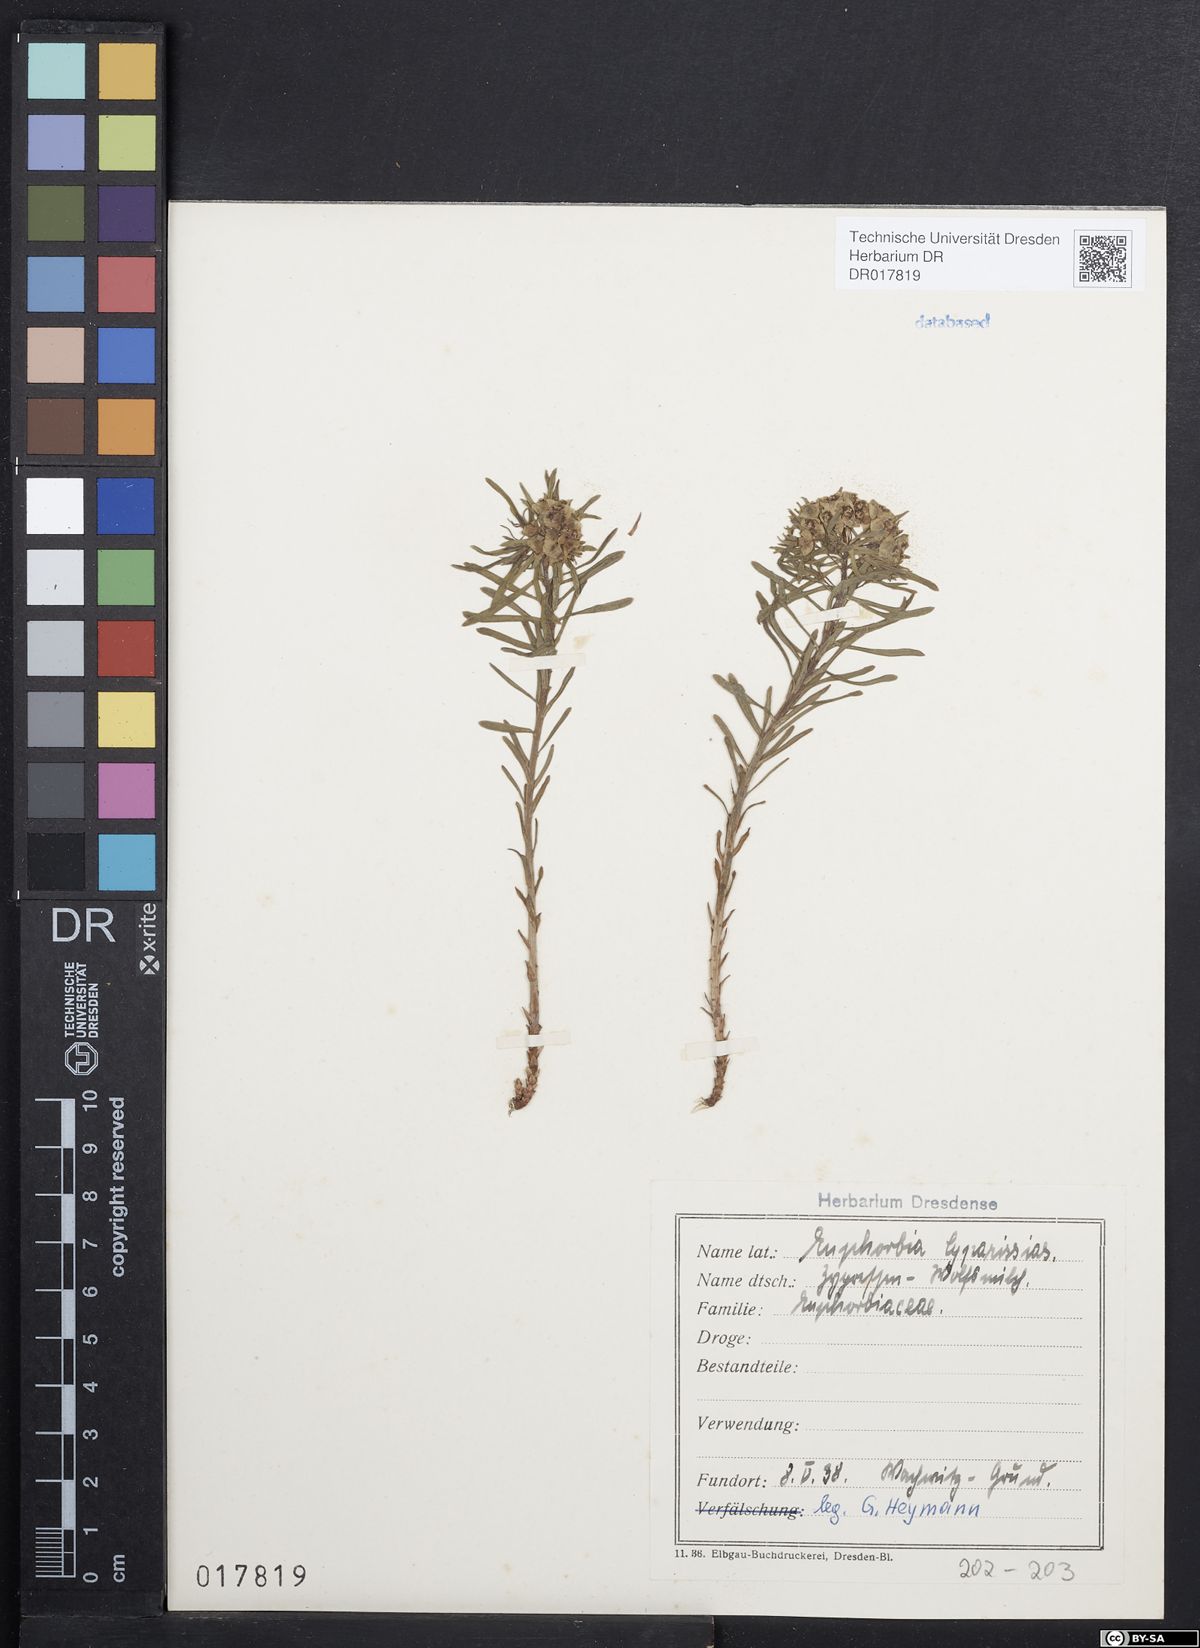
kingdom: Plantae
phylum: Tracheophyta
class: Magnoliopsida
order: Malpighiales
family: Euphorbiaceae
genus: Euphorbia
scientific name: Euphorbia cyparissias
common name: Cypress spurge
